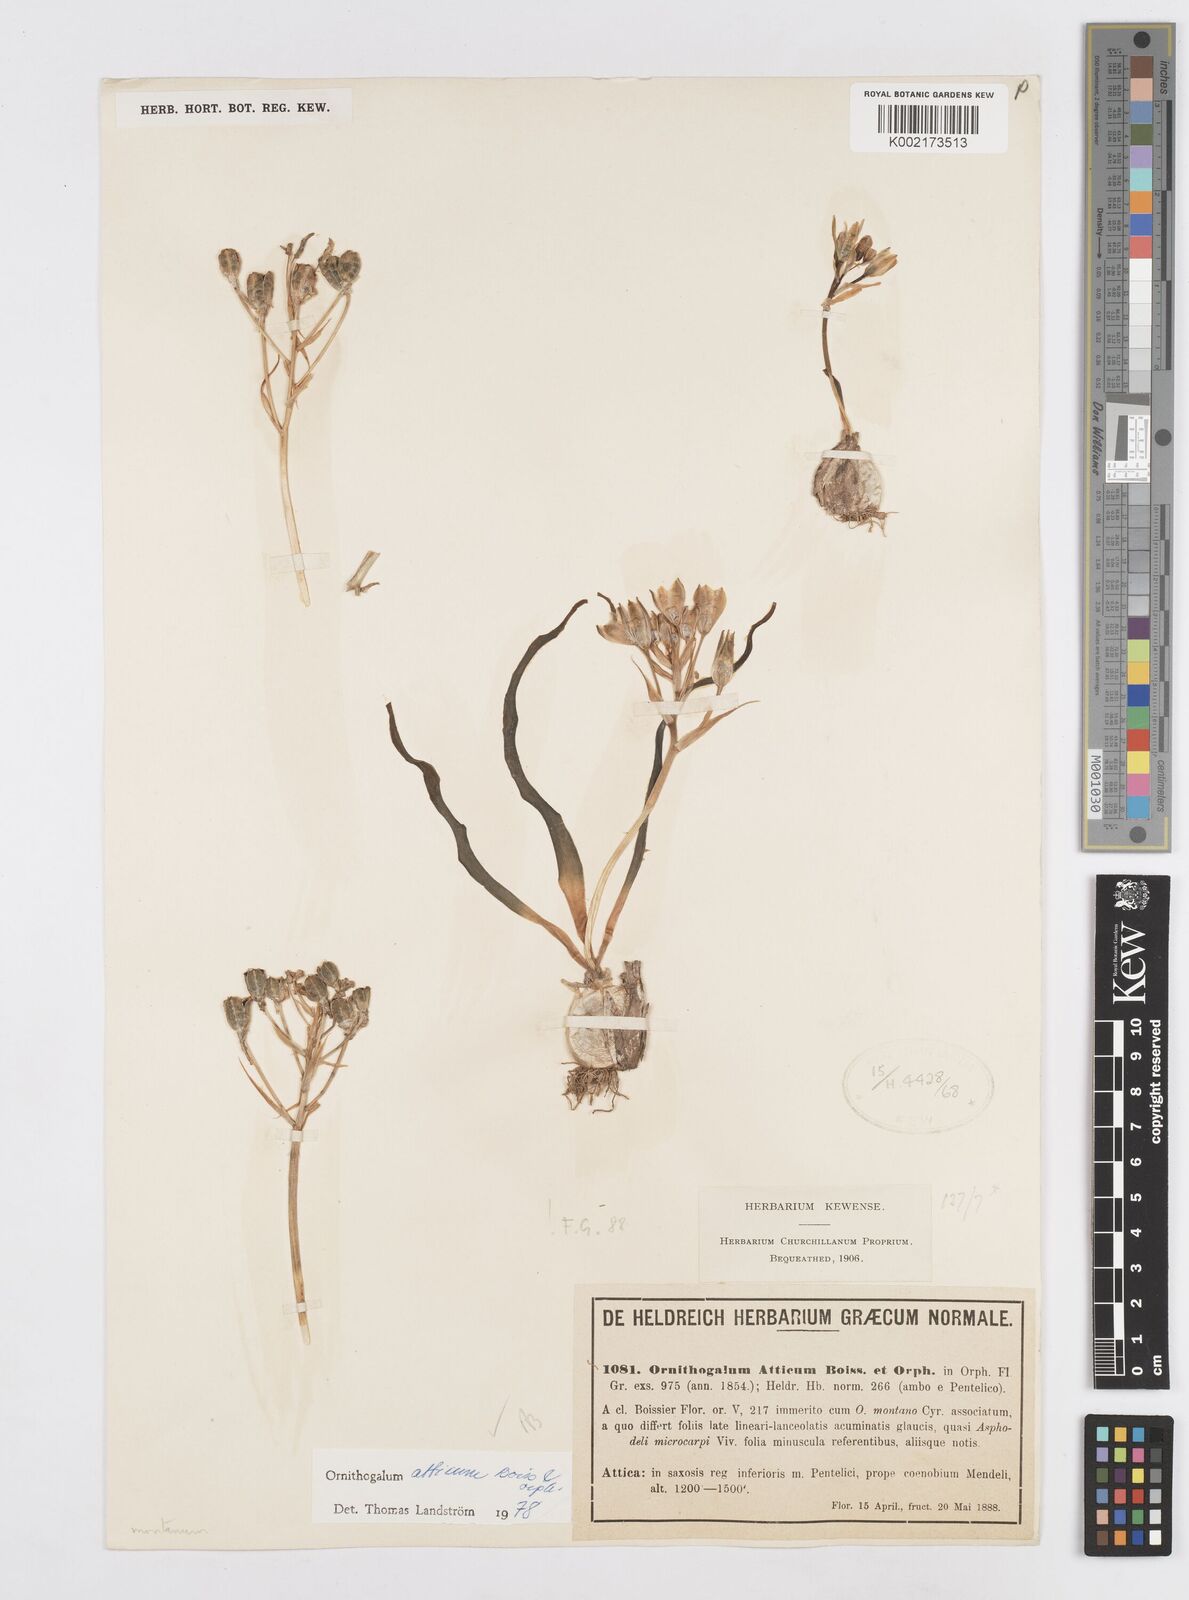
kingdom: Plantae
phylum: Tracheophyta
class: Liliopsida
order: Asparagales
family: Asparagaceae
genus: Ornithogalum
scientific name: Ornithogalum atticum
